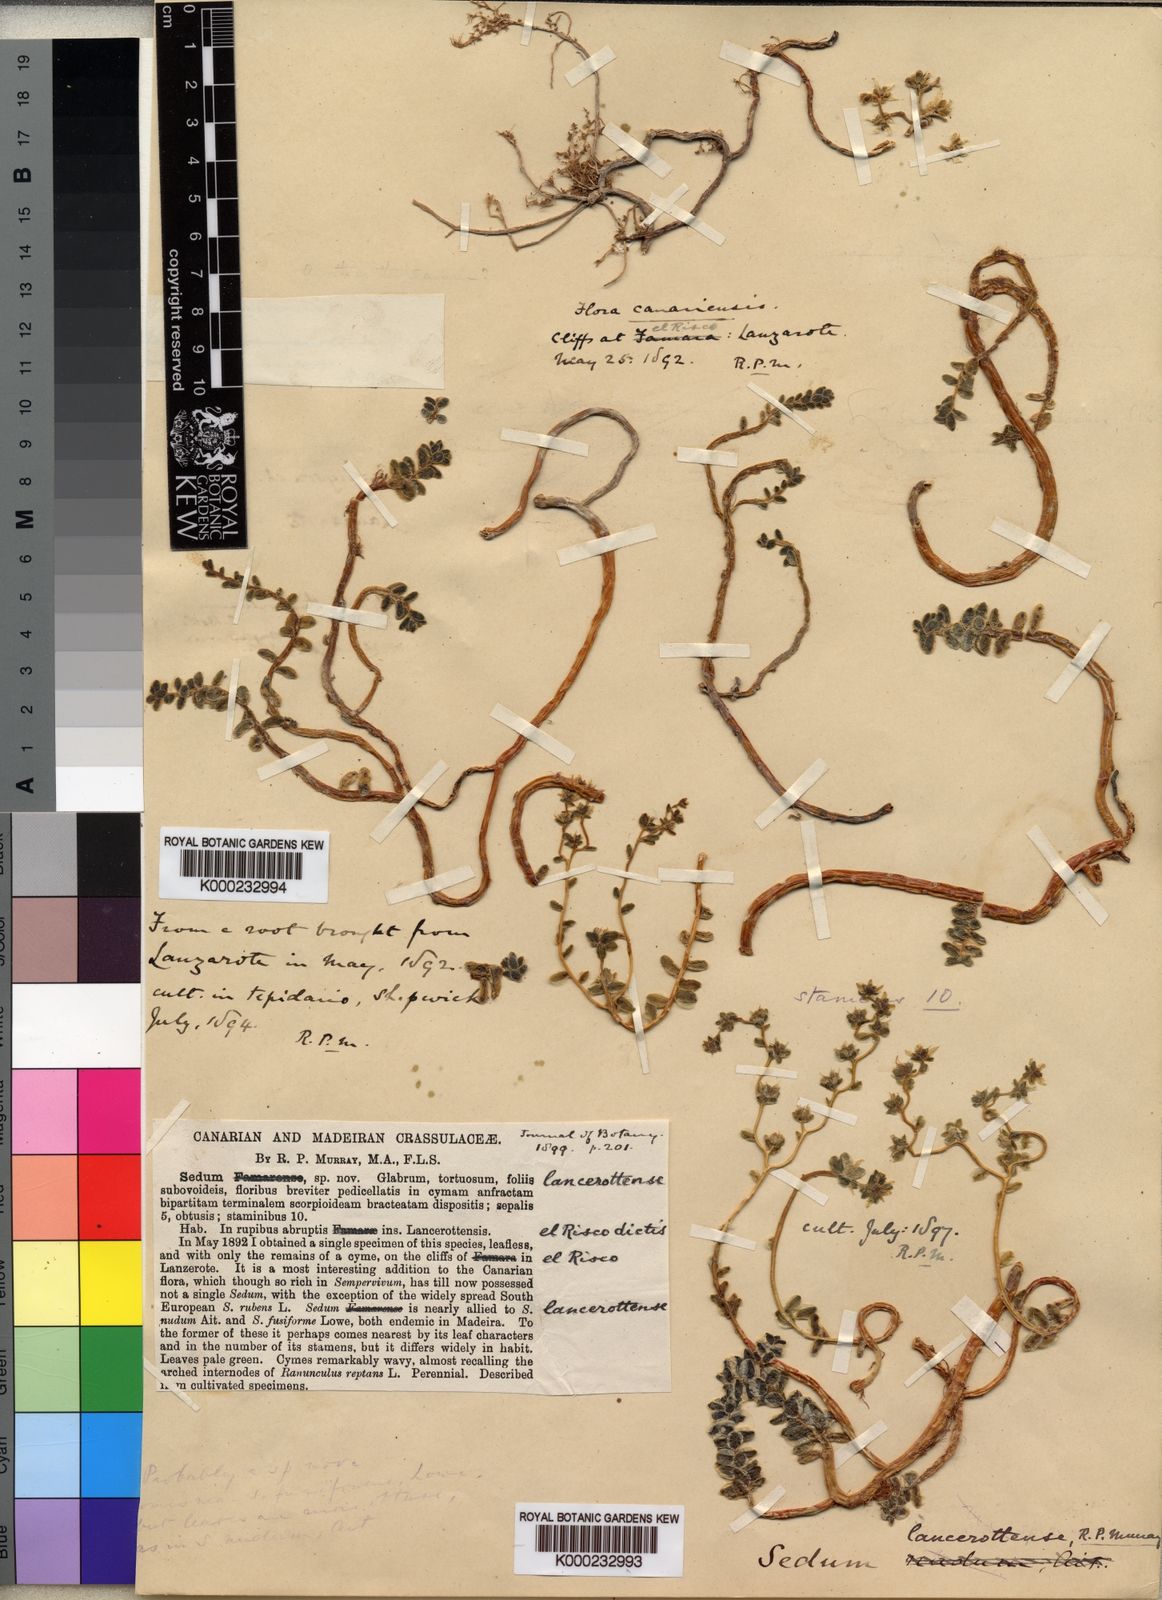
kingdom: Plantae
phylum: Tracheophyta
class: Magnoliopsida
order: Saxifragales
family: Crassulaceae
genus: Sedum
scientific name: Sedum lancerottense
